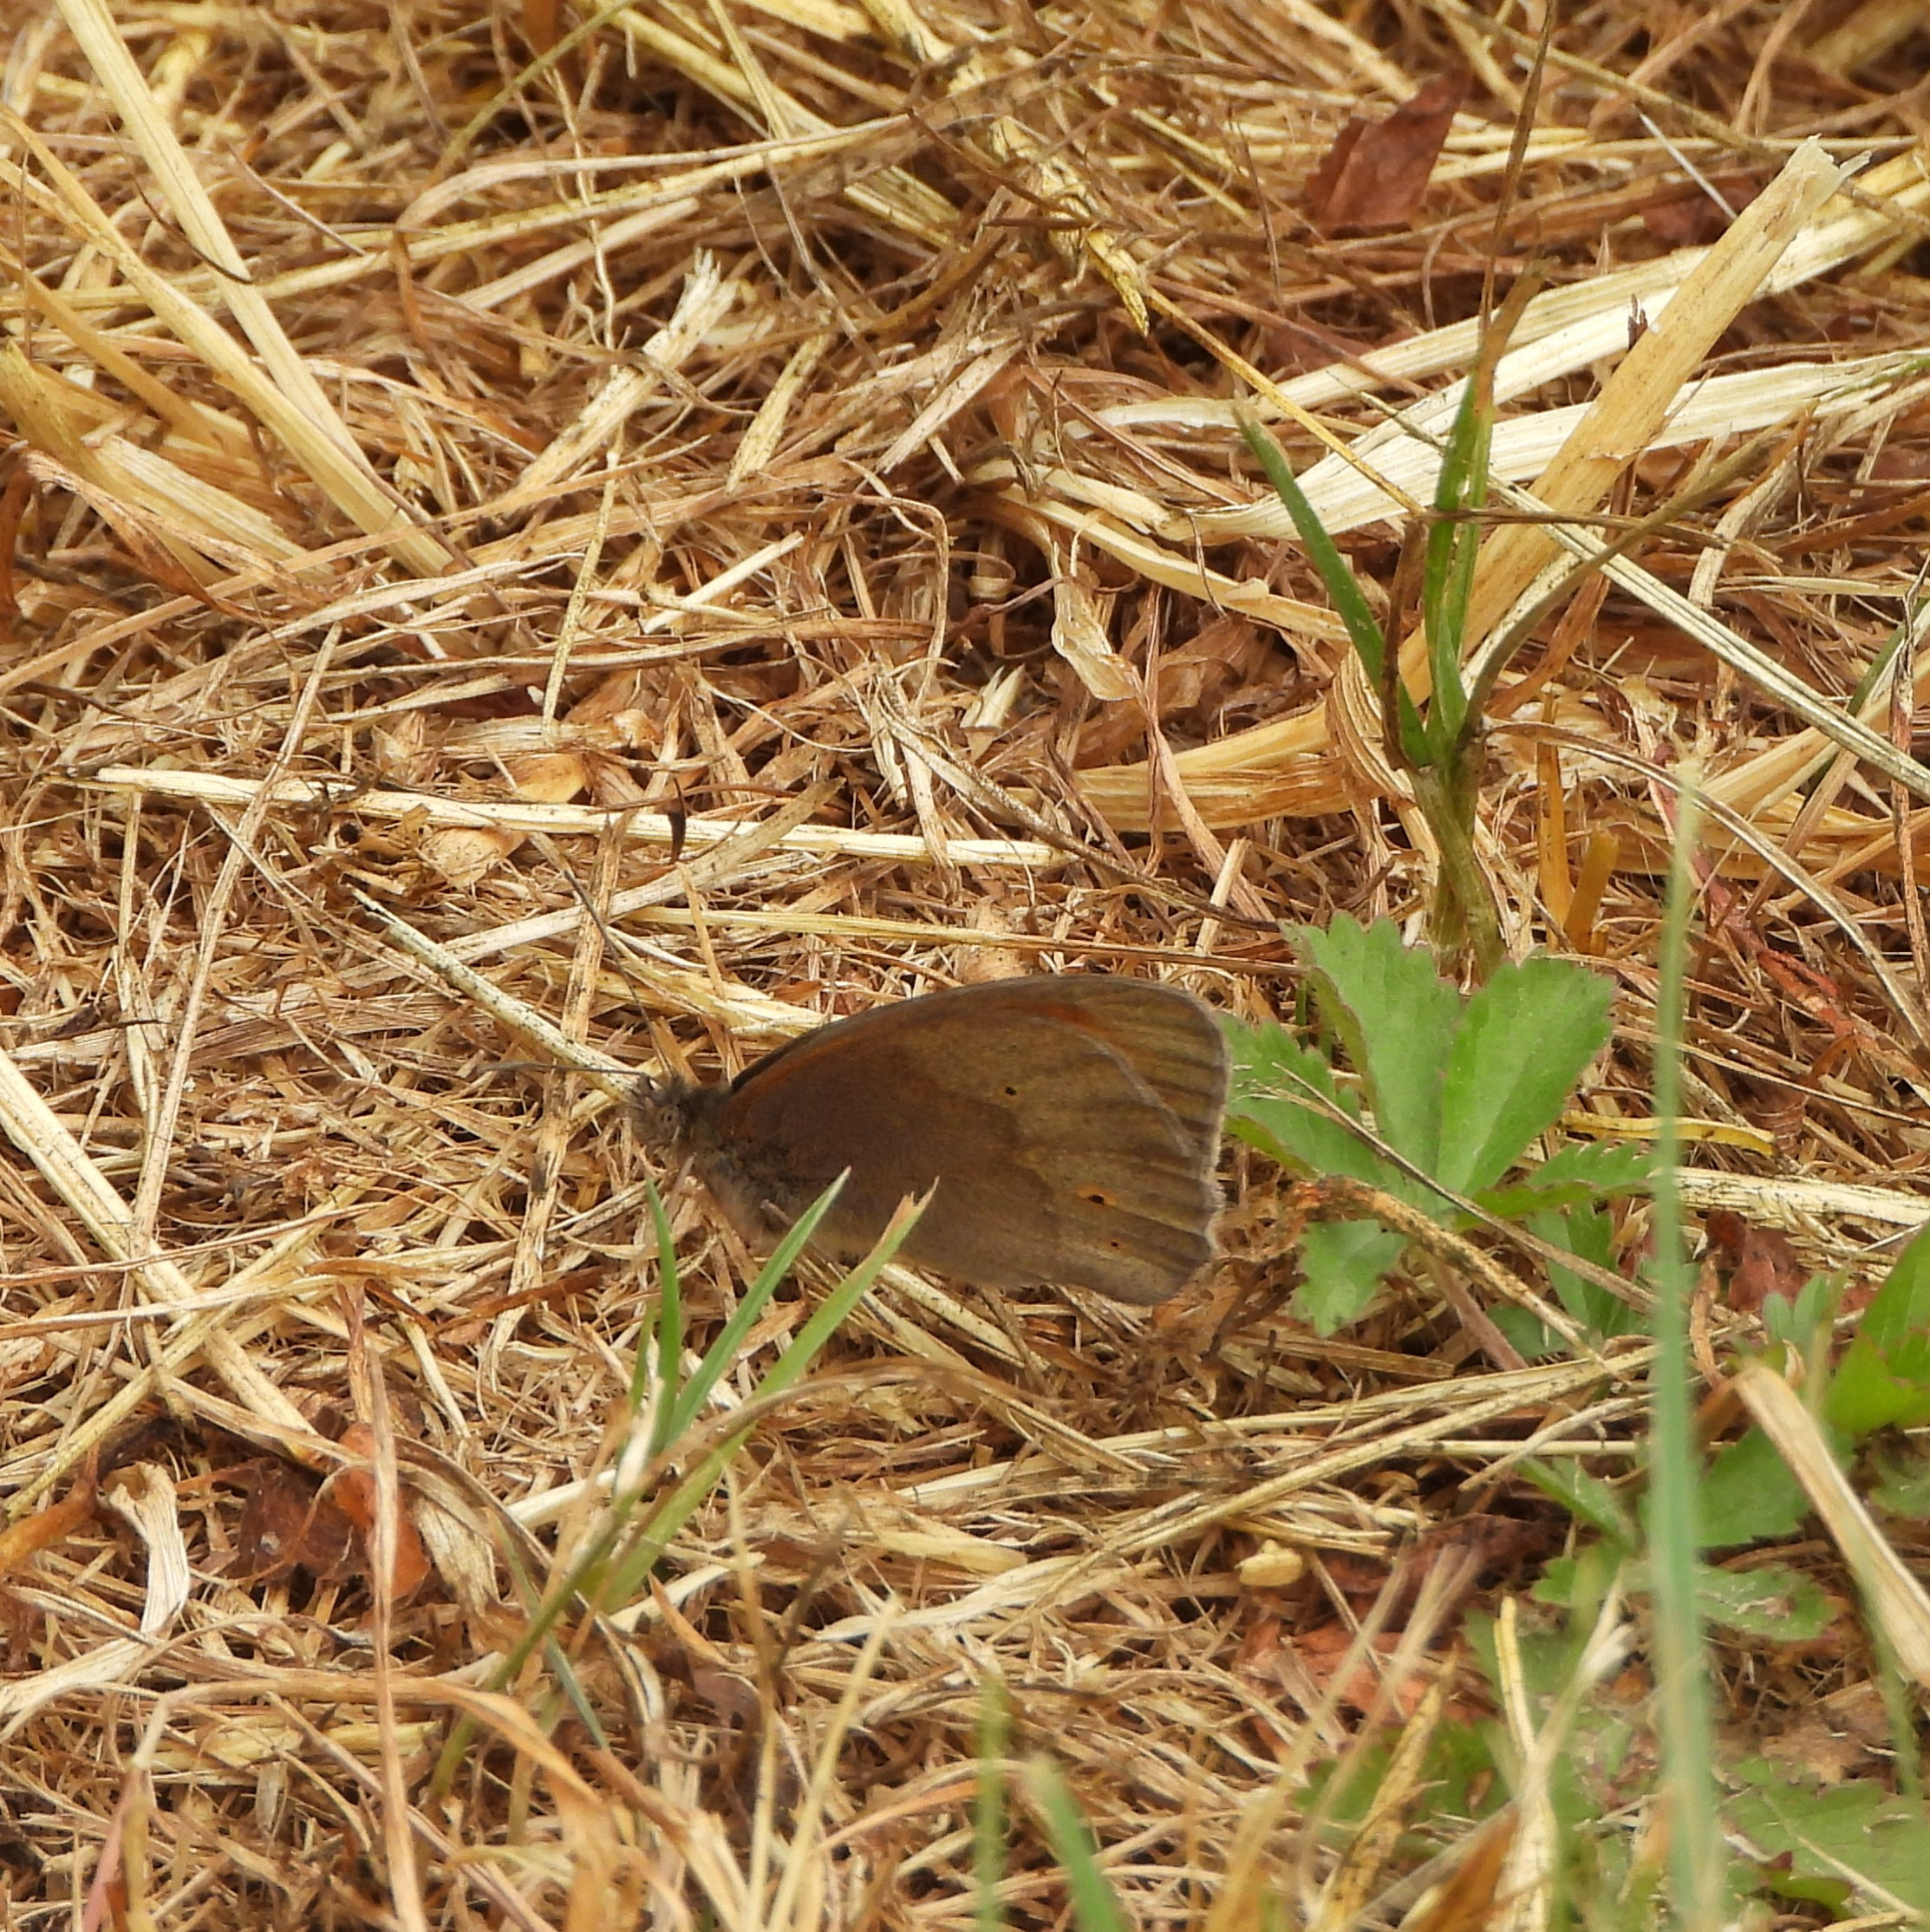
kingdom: Animalia
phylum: Arthropoda
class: Insecta
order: Lepidoptera
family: Nymphalidae
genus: Maniola
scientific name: Maniola jurtina
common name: Græsrandøje
